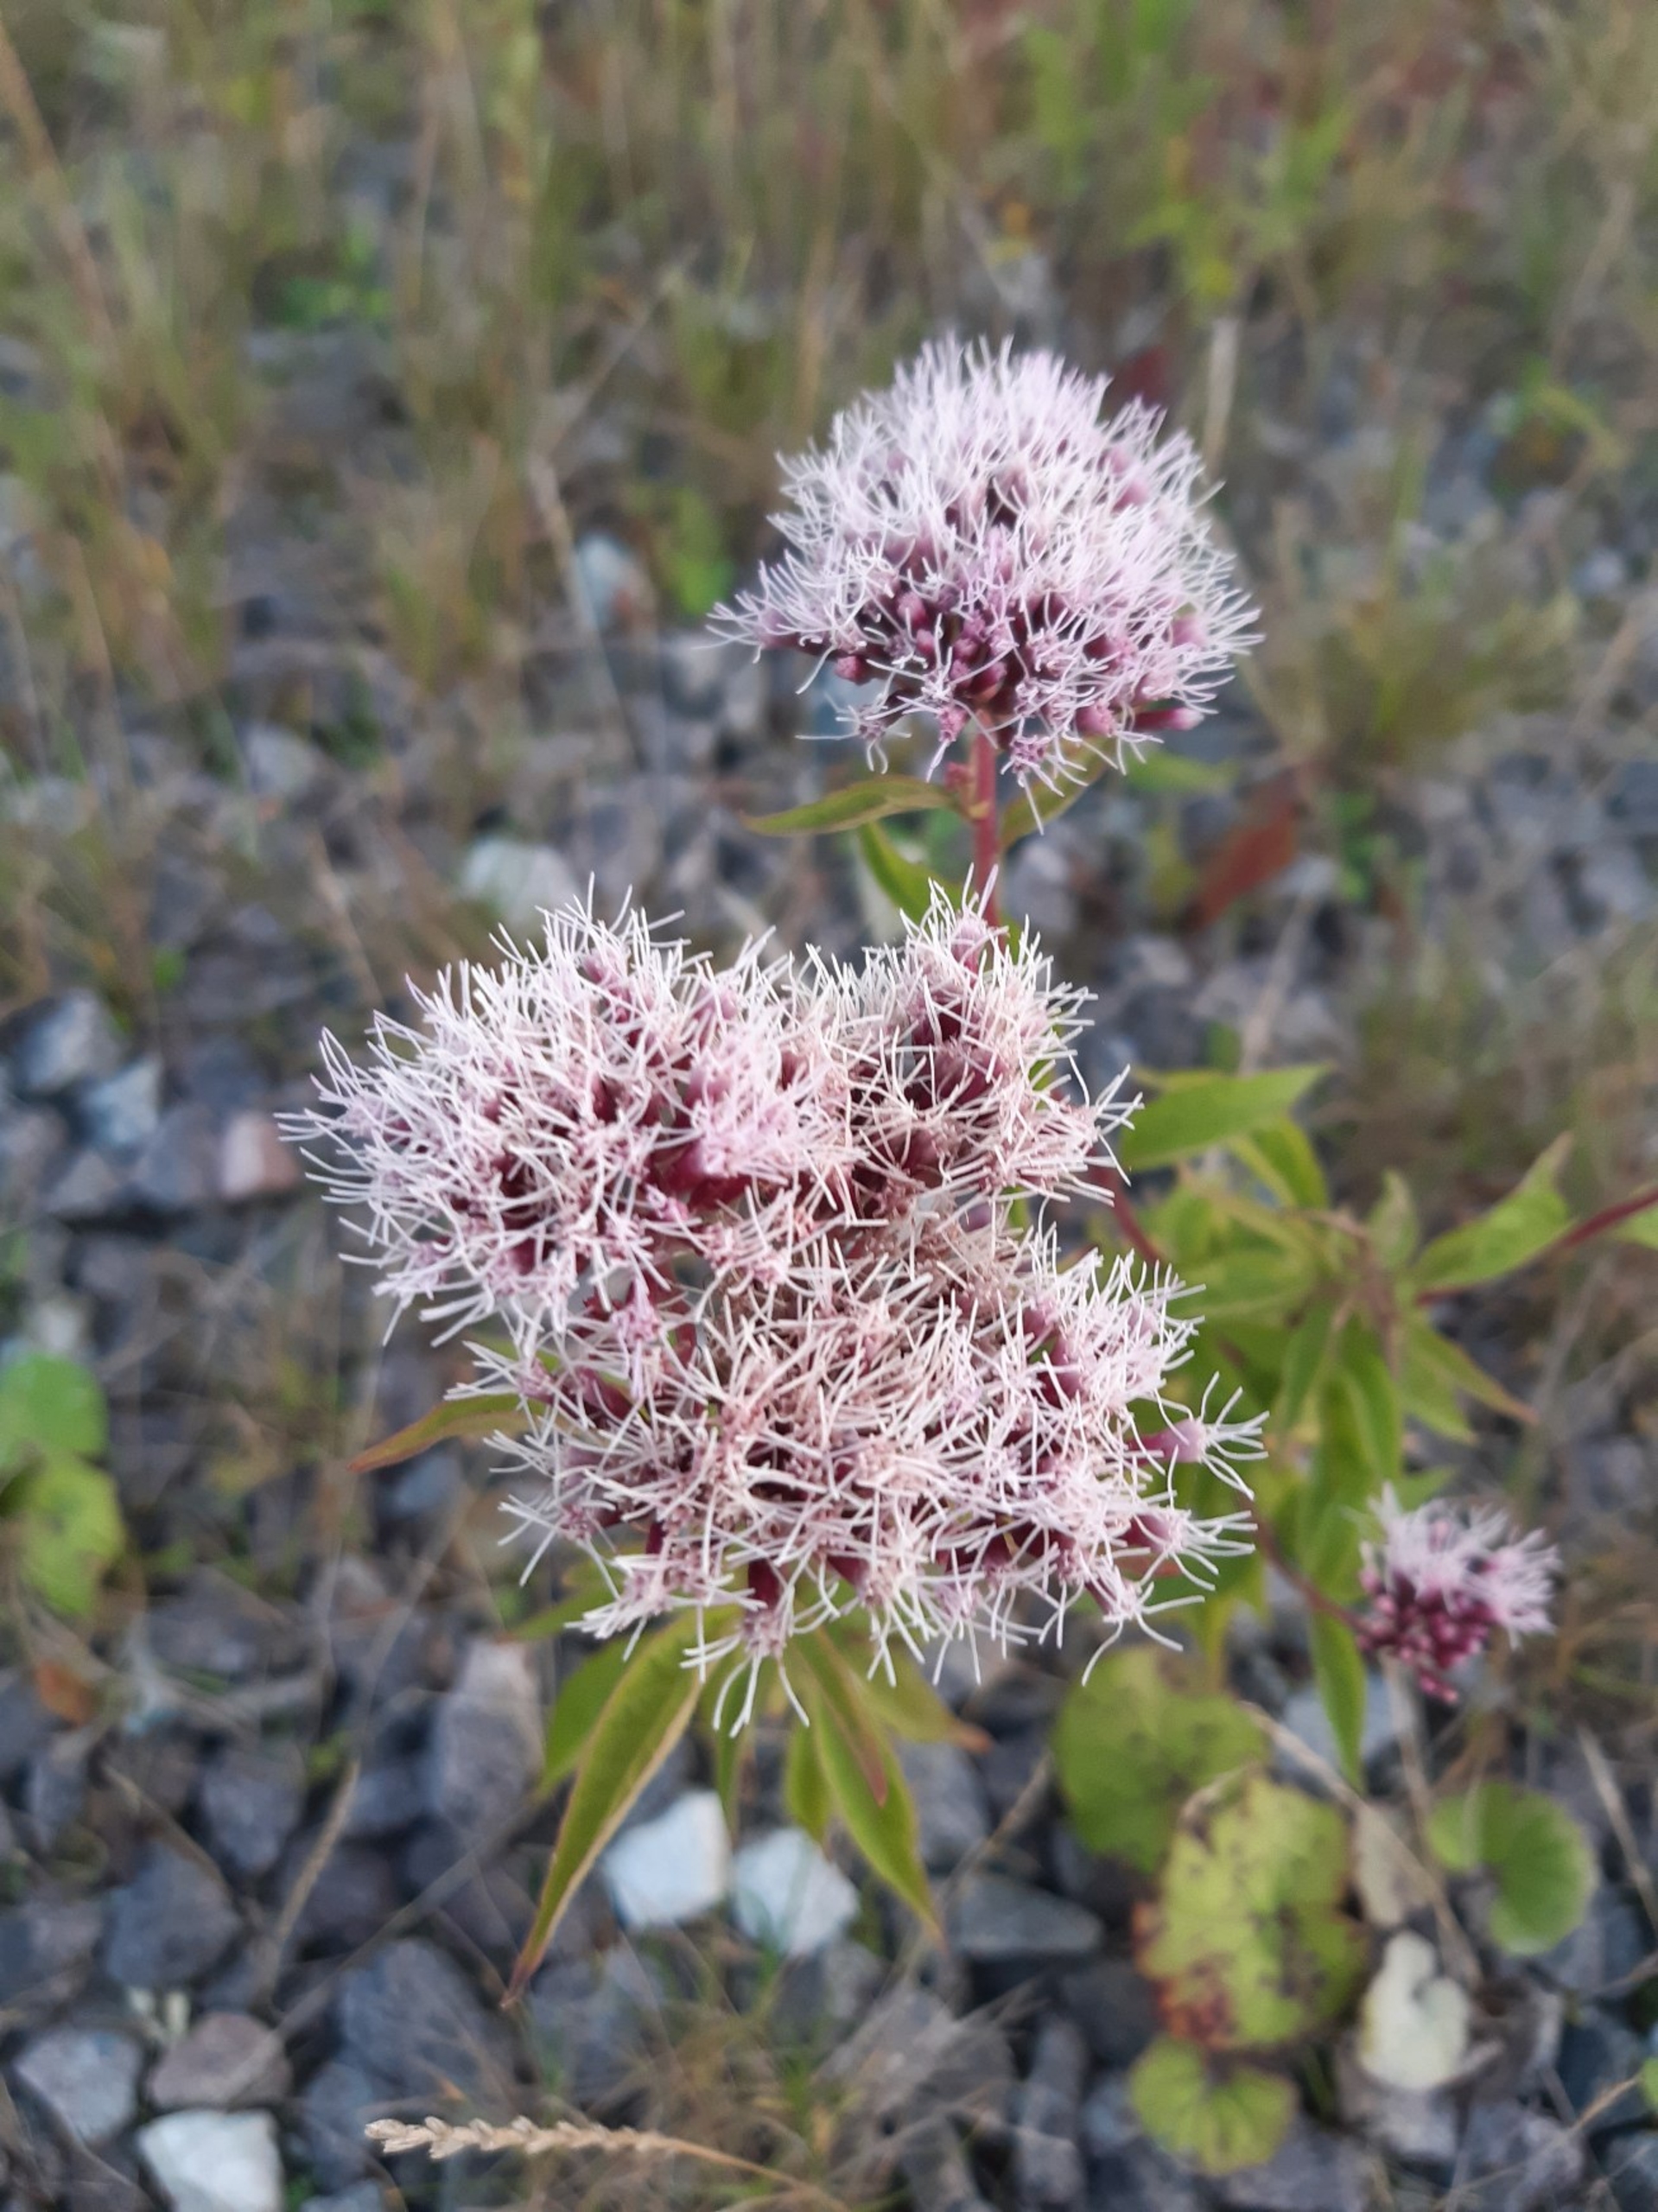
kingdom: Plantae
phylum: Tracheophyta
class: Magnoliopsida
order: Asterales
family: Asteraceae
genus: Eupatorium
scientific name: Eupatorium cannabinum
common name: Hjortetrøst
